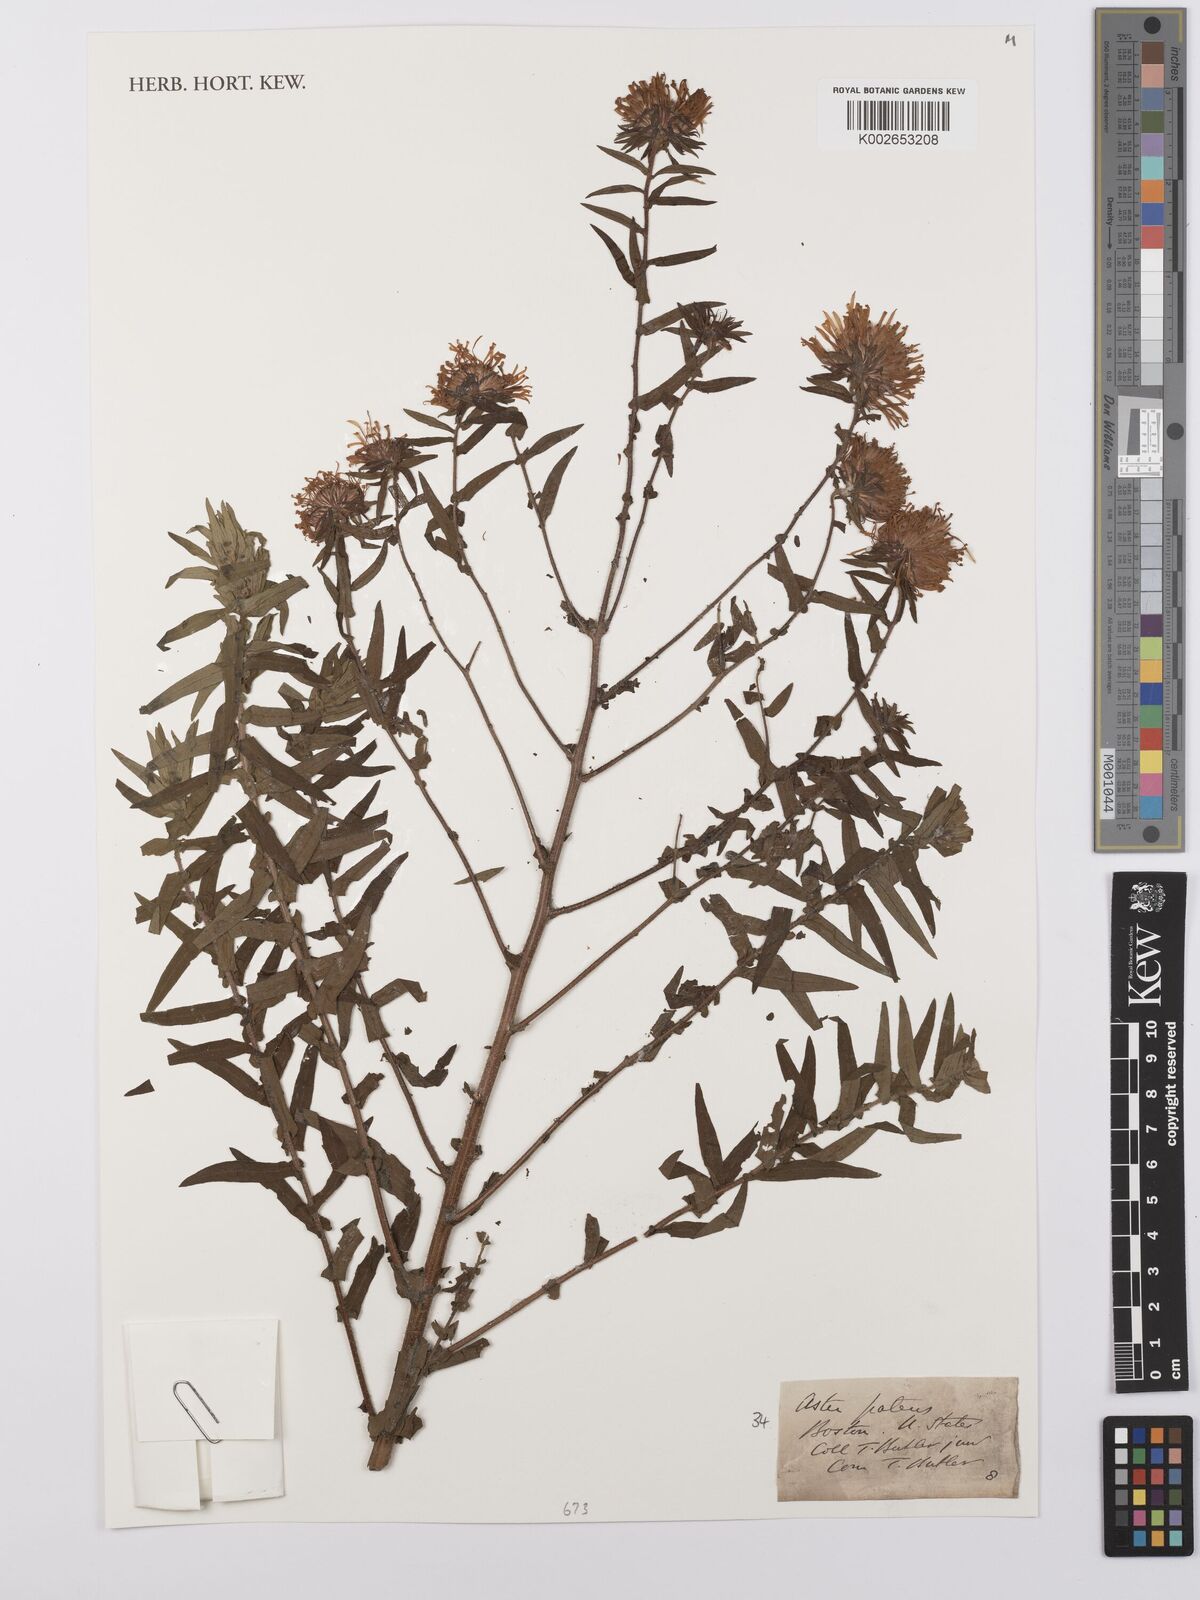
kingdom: Plantae
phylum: Tracheophyta
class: Magnoliopsida
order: Asterales
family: Asteraceae
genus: Symphyotrichum
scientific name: Symphyotrichum patens
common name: Late purple aster
